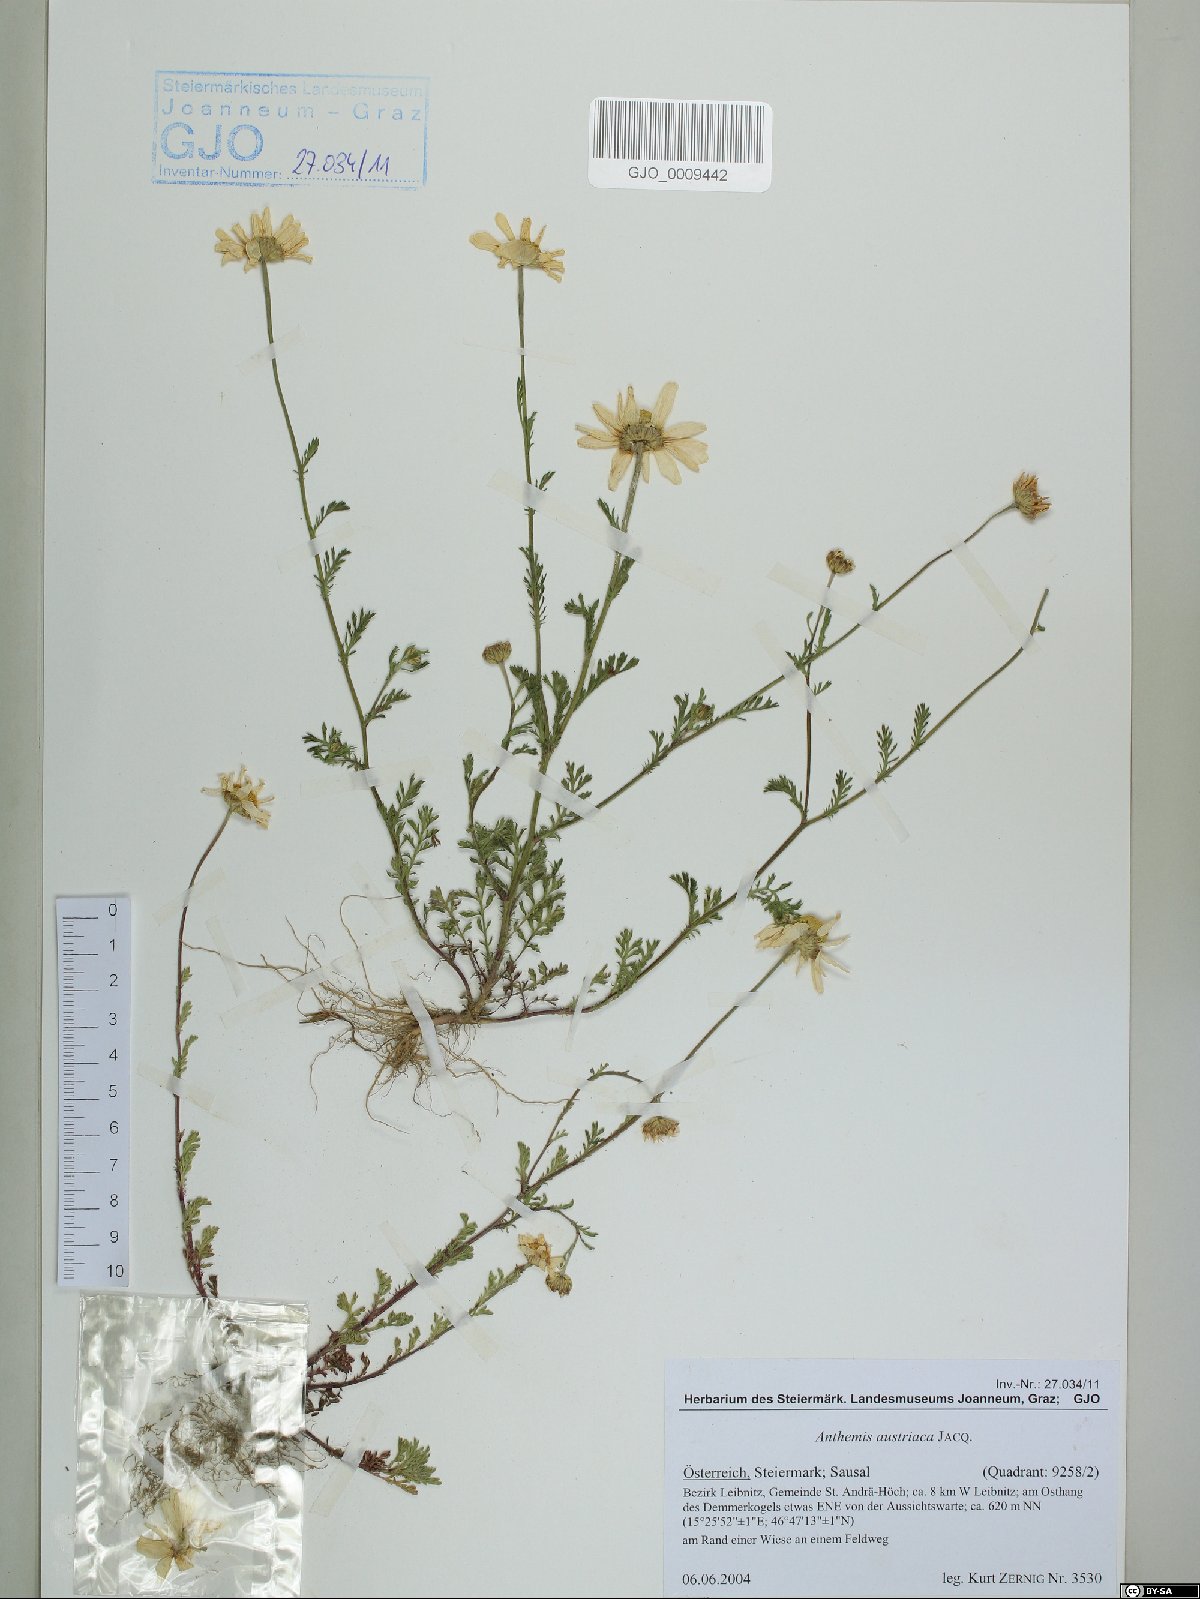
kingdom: Plantae
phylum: Tracheophyta
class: Magnoliopsida
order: Asterales
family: Asteraceae
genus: Cota
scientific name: Cota austriaca
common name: Austrian chamomile
